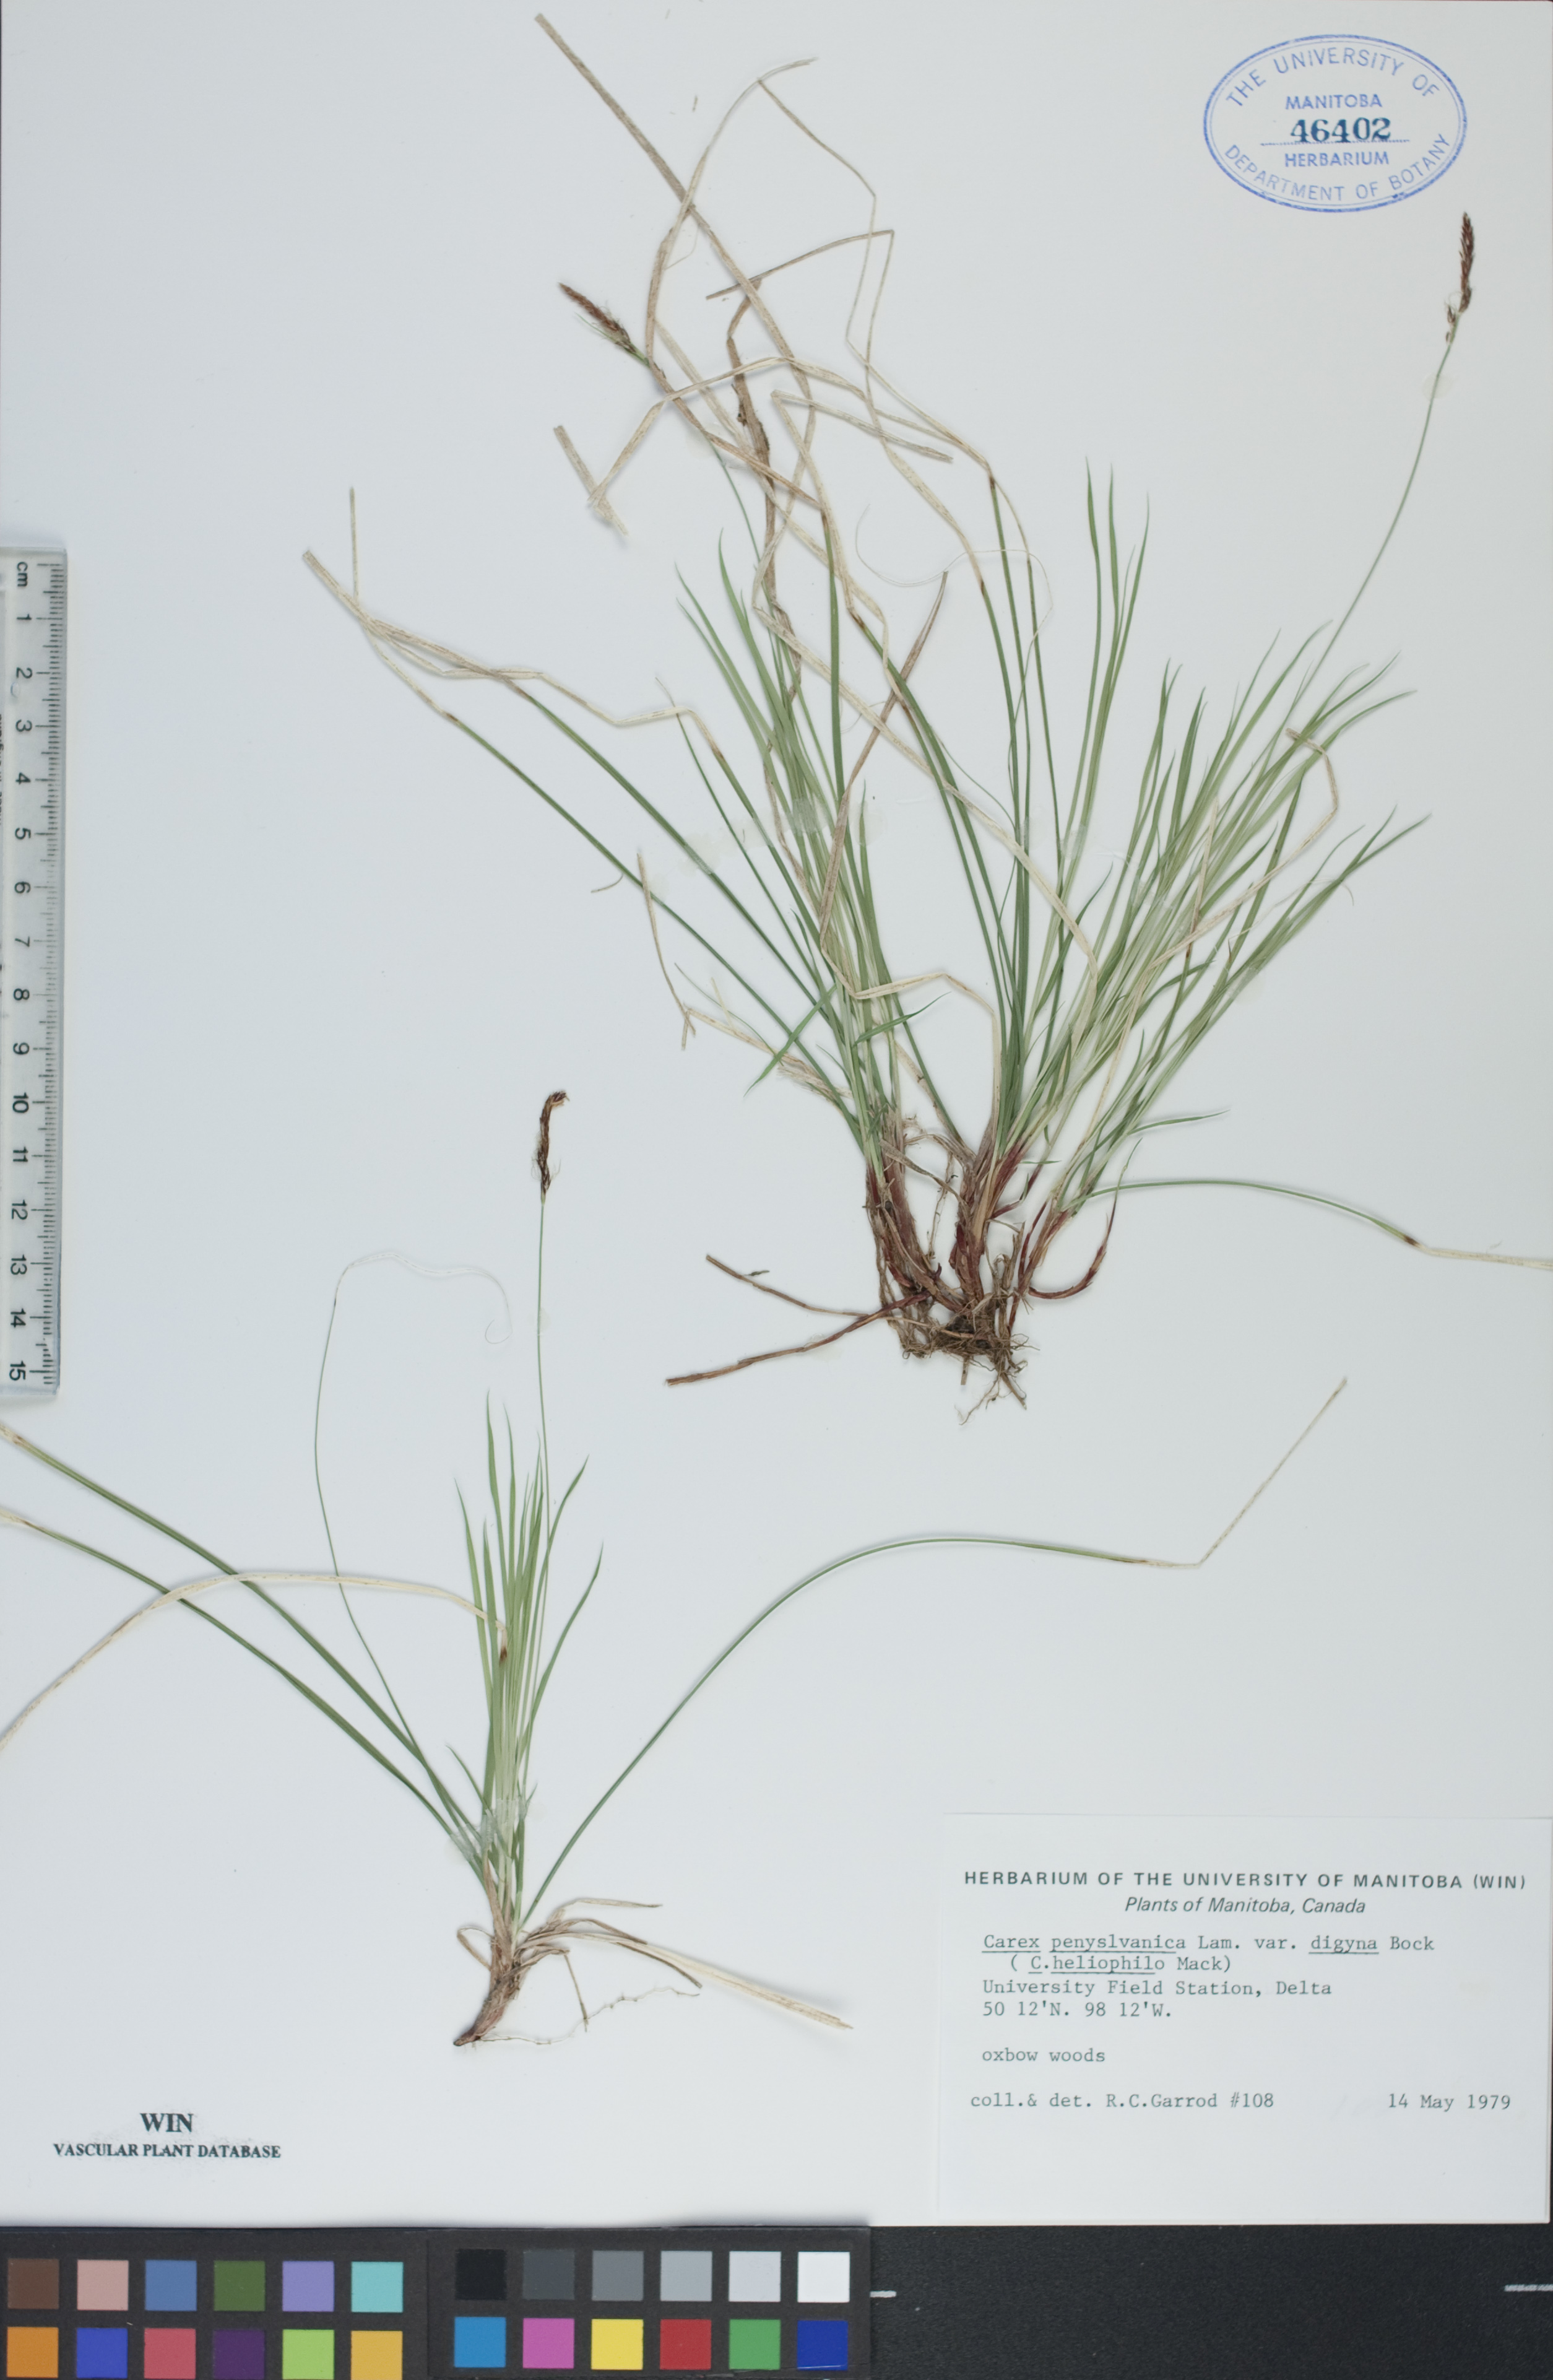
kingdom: Plantae
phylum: Tracheophyta
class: Liliopsida
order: Poales
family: Cyperaceae
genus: Carex
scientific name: Carex inops
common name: Long-stolon sedge
